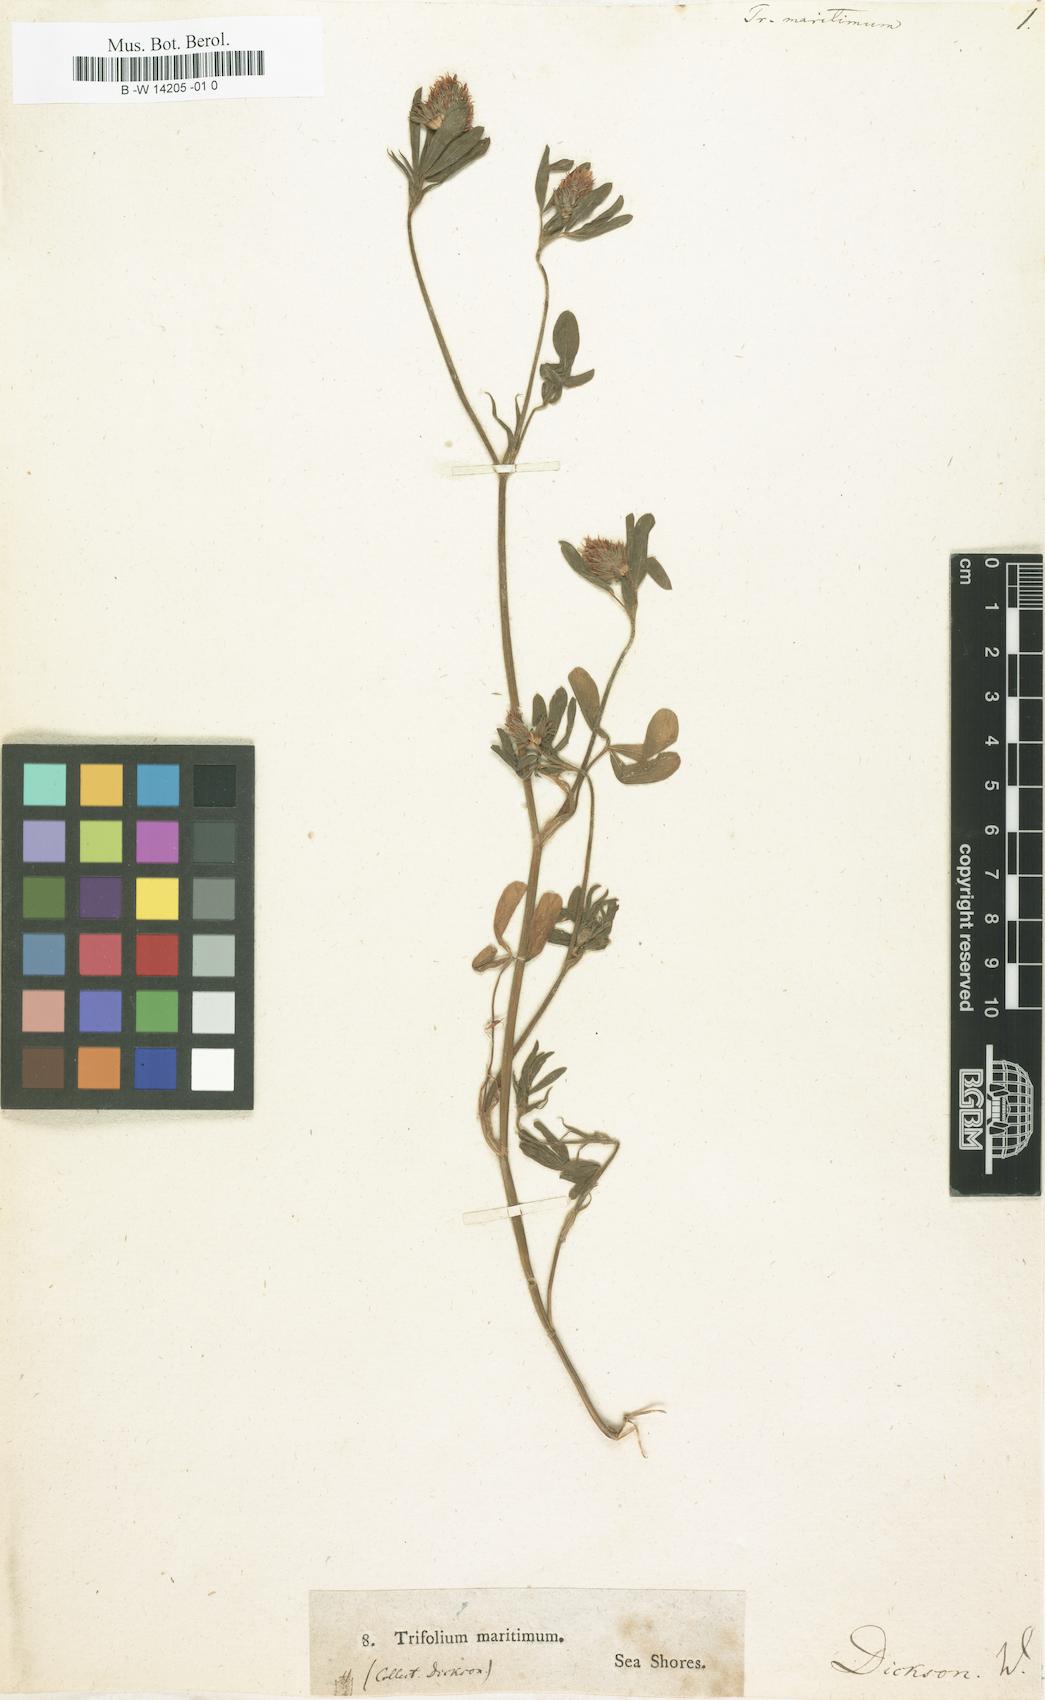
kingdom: Plantae
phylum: Tracheophyta
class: Magnoliopsida
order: Fabales
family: Fabaceae
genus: Trifolium
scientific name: Trifolium squamosum
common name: Sea clover
